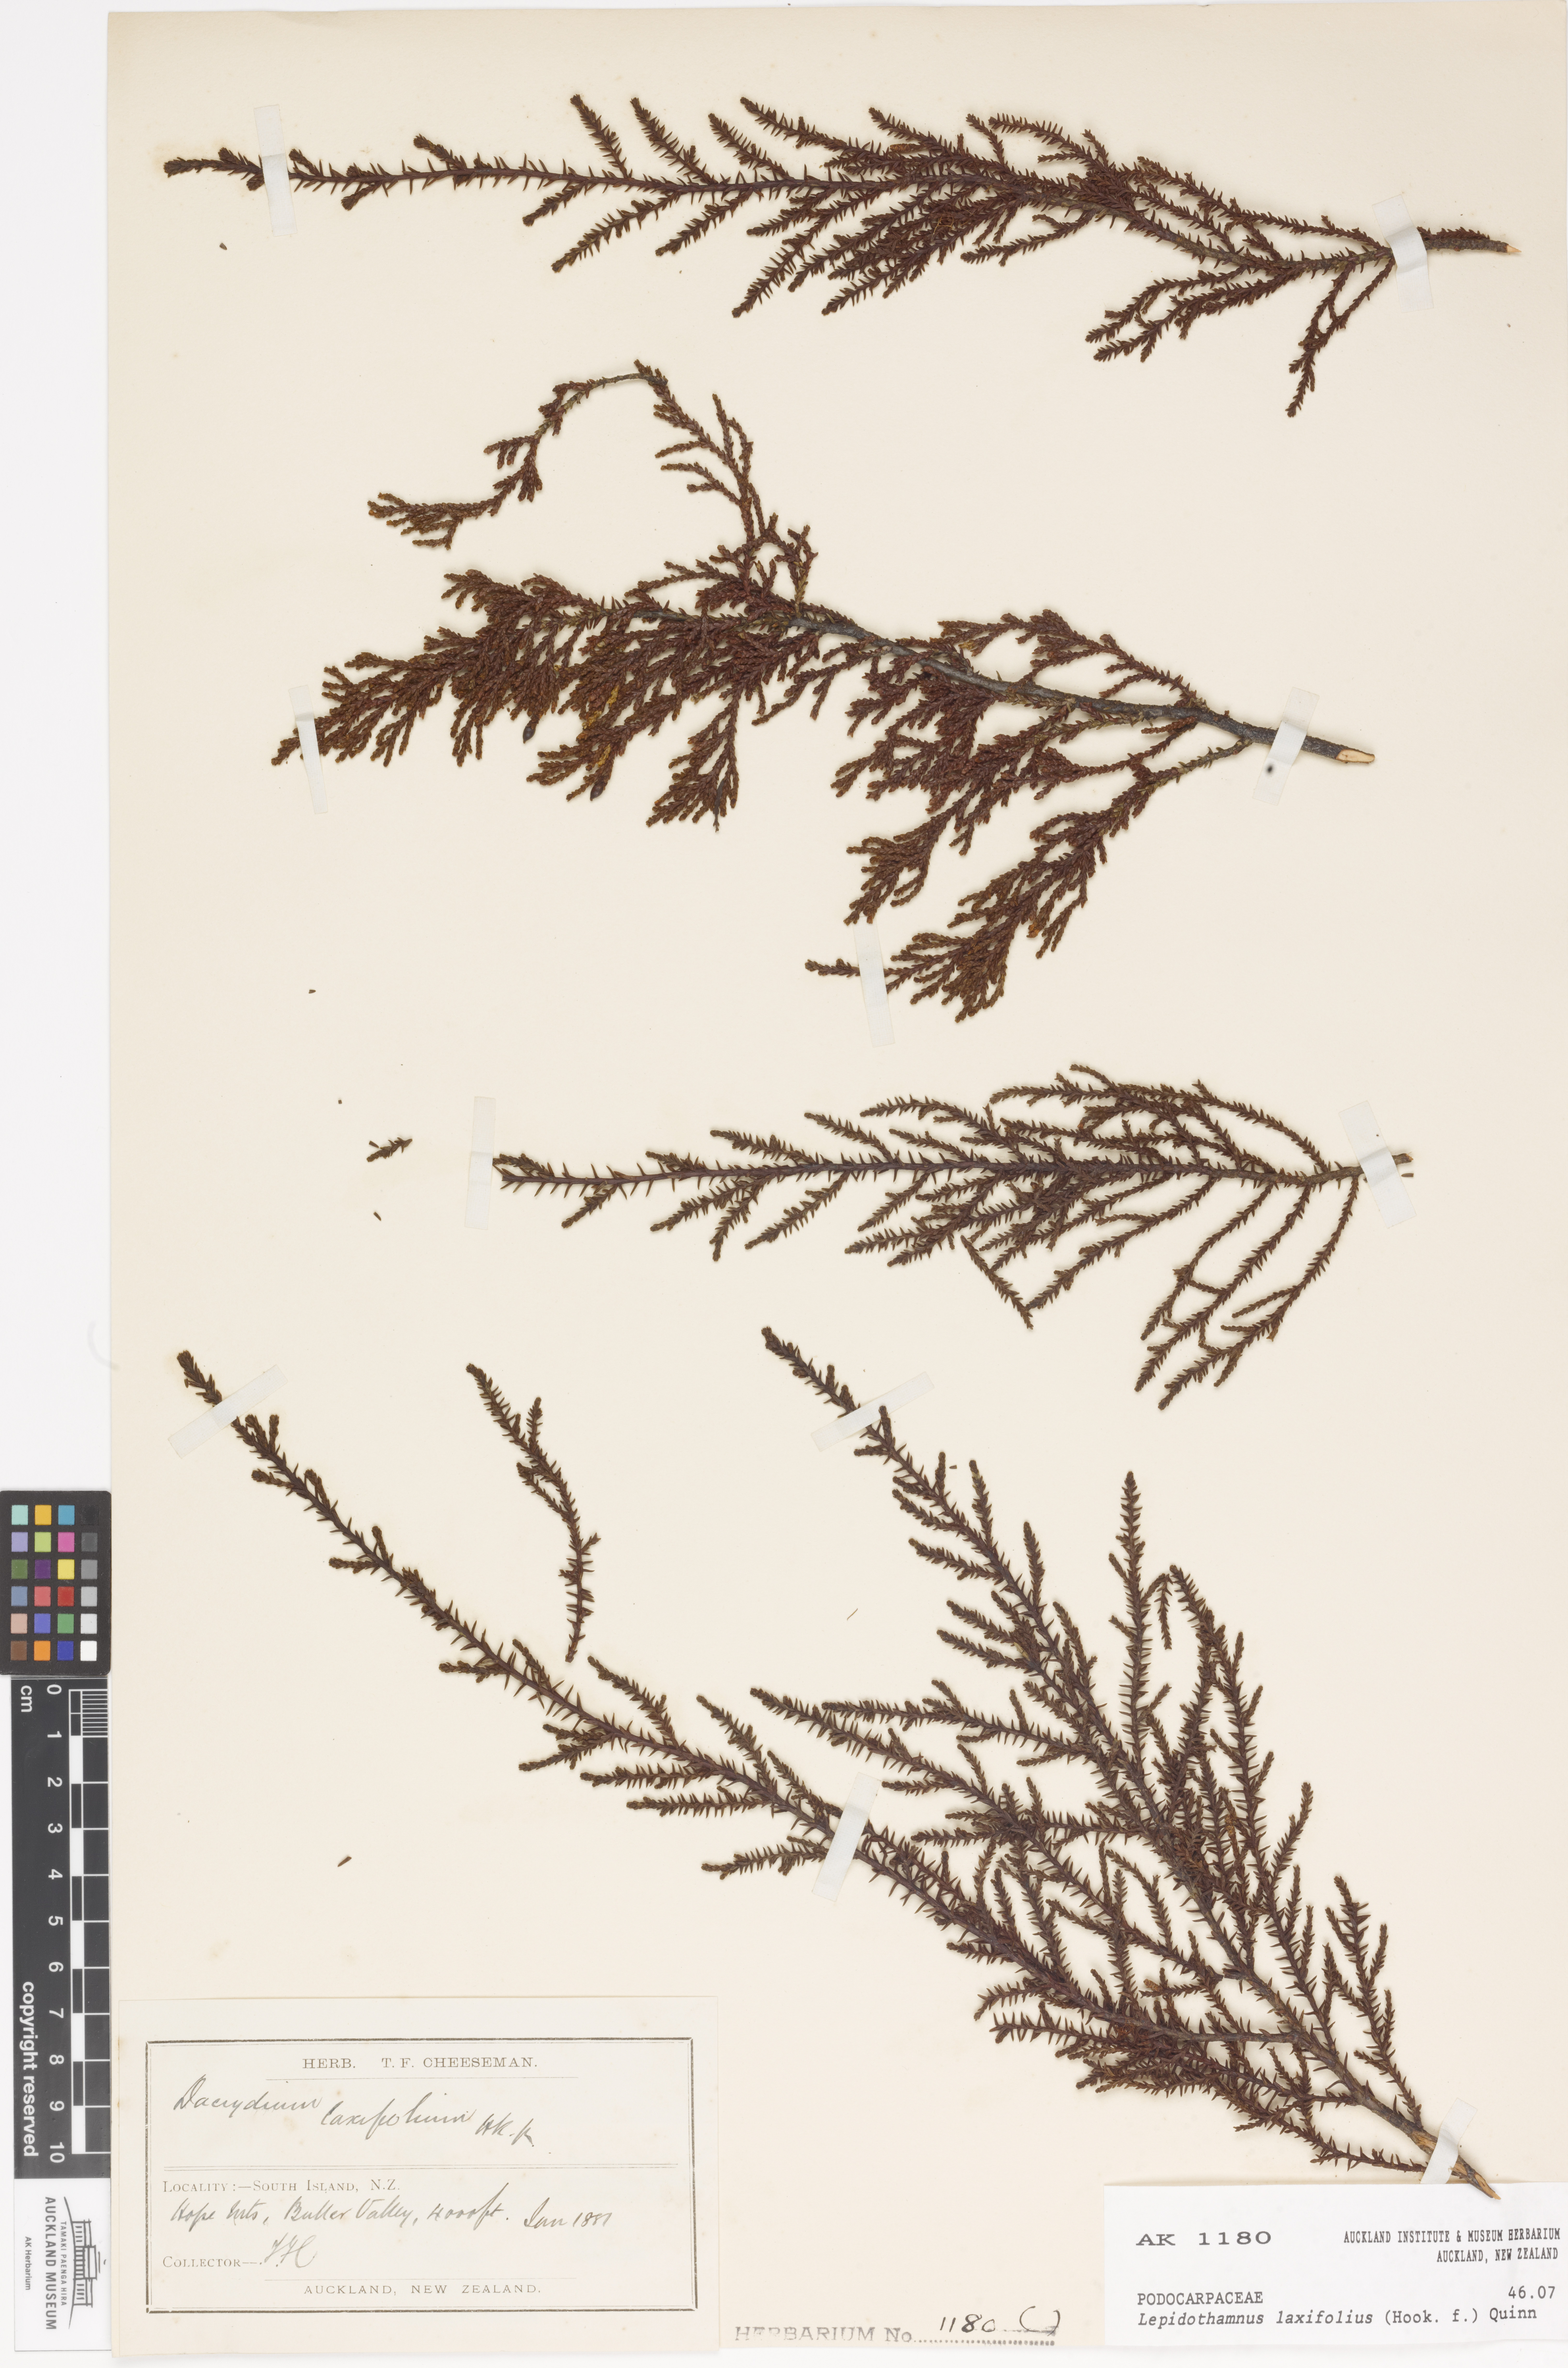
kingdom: Plantae
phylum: Tracheophyta
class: Pinopsida
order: Pinales
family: Podocarpaceae
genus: Lepidothamnus
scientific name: Lepidothamnus laxifolius
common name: Pygmy pine
